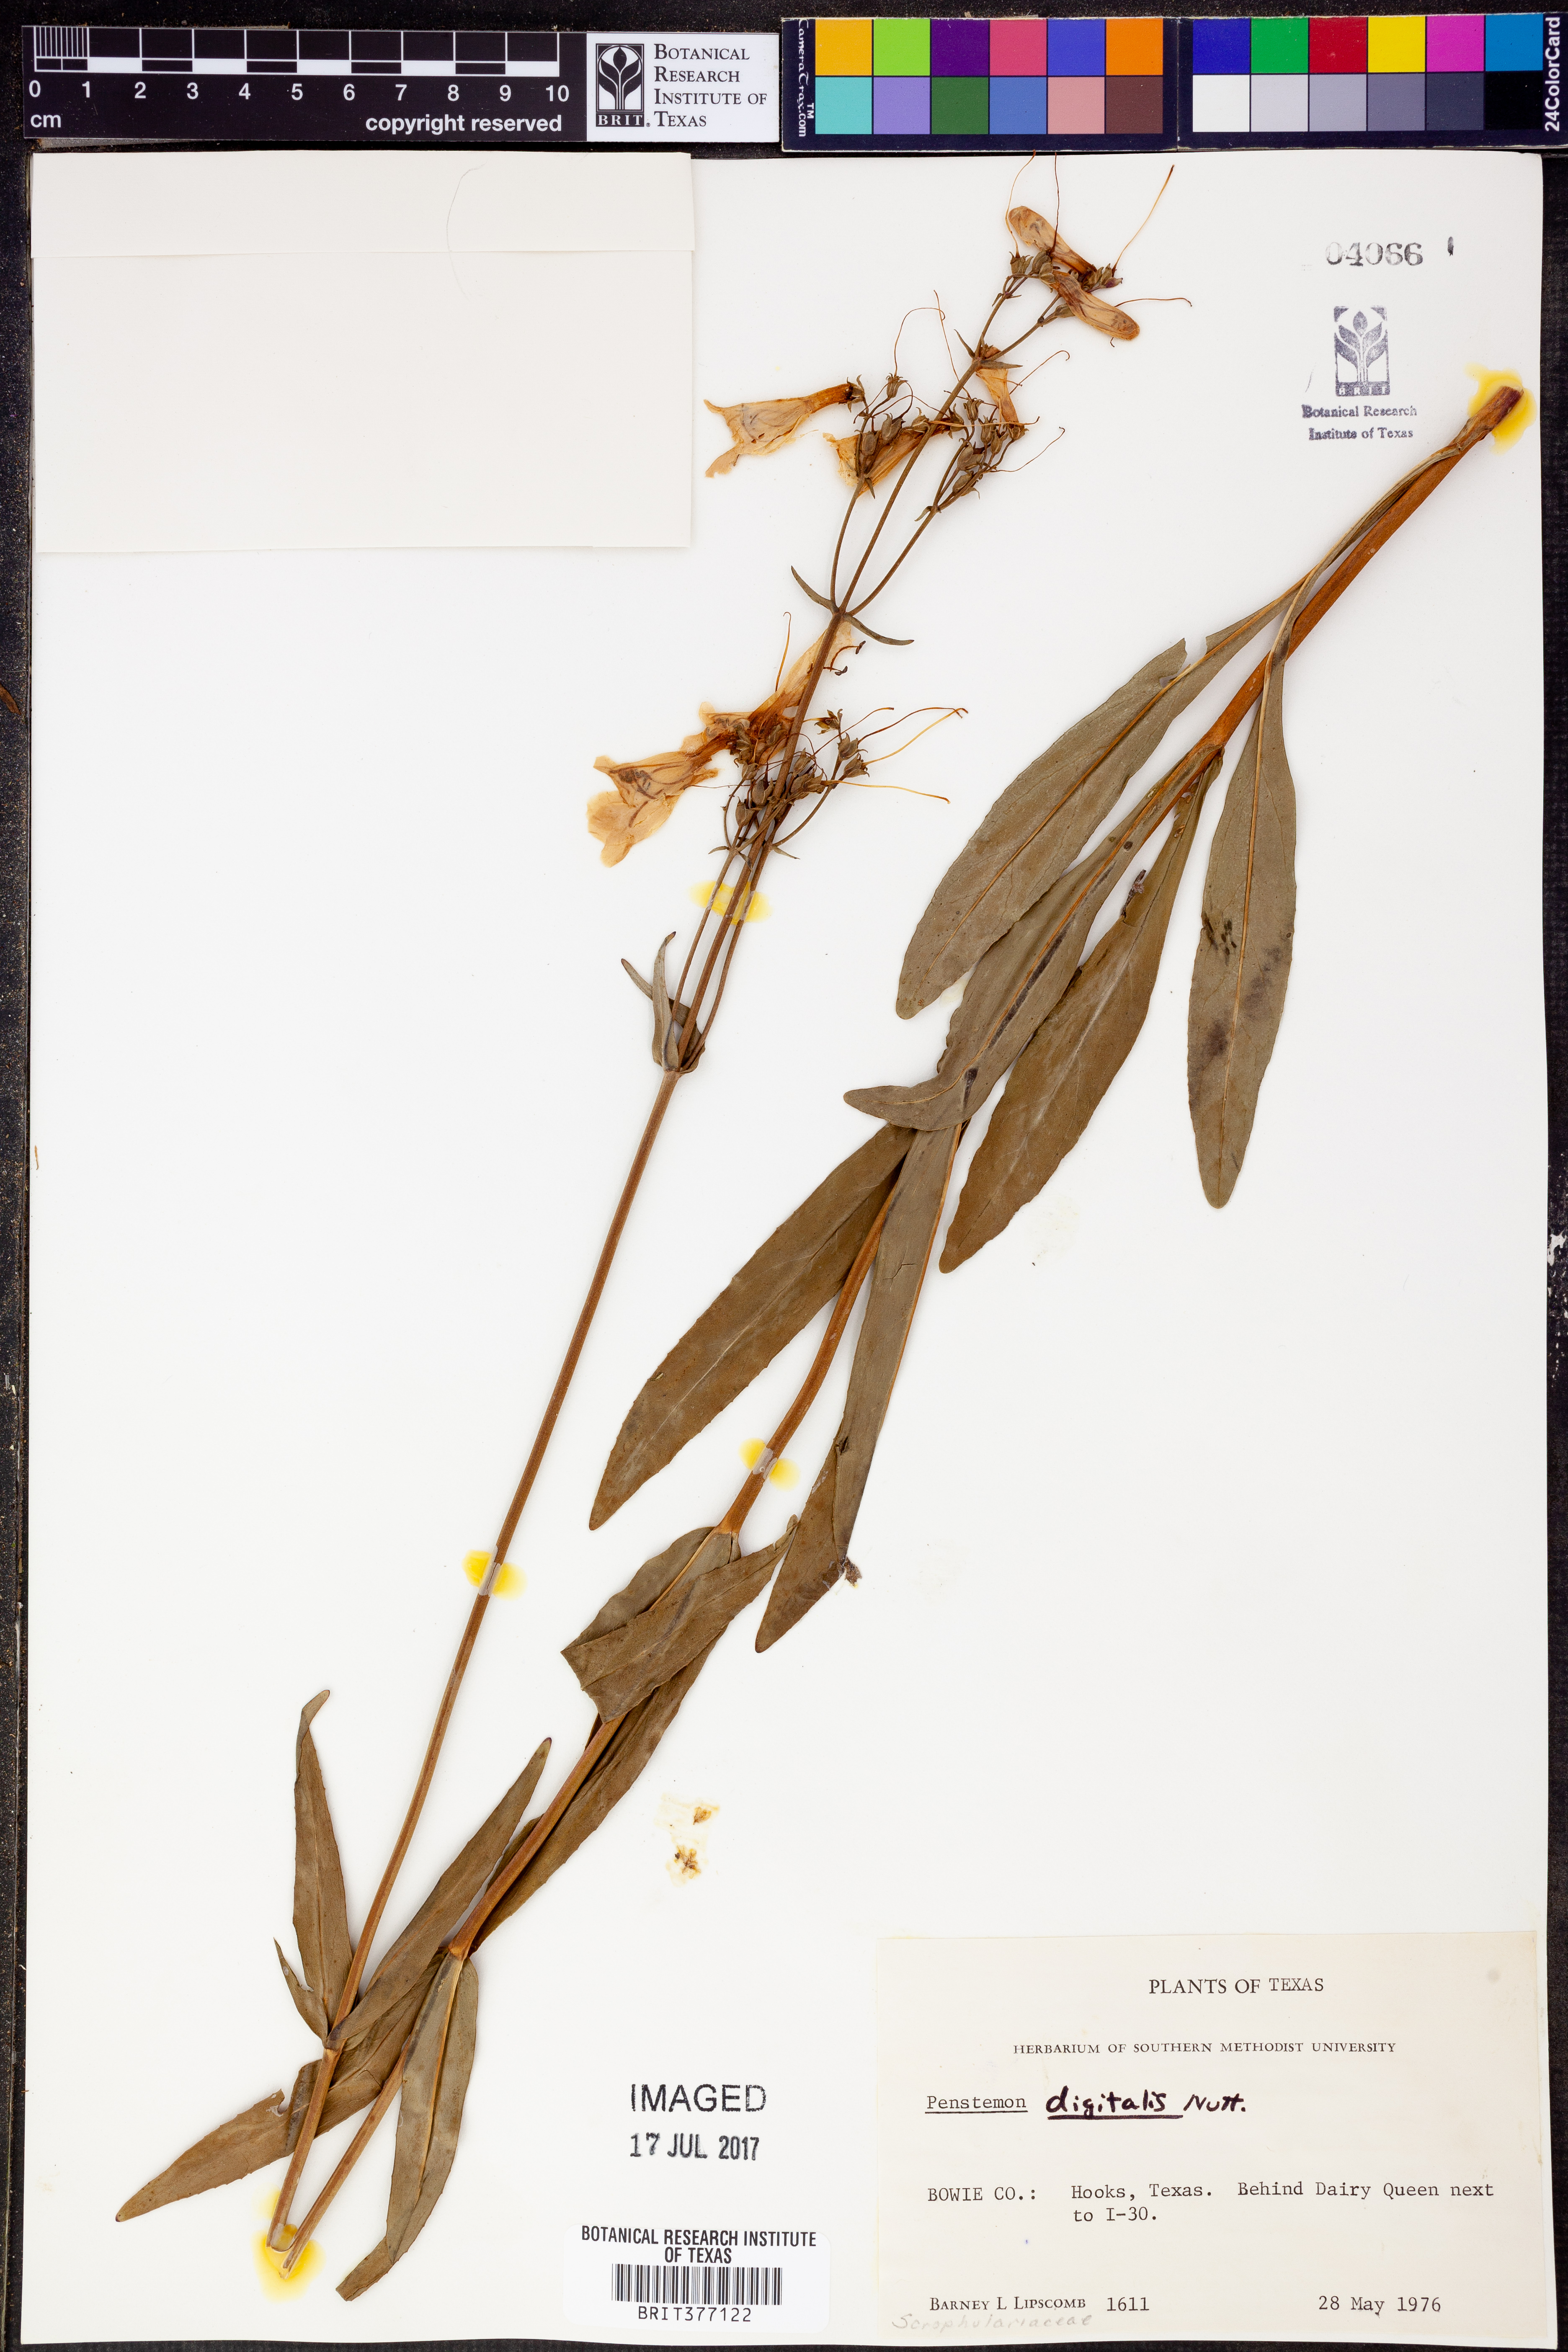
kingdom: Plantae
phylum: Tracheophyta
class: Magnoliopsida
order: Lamiales
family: Plantaginaceae
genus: Penstemon
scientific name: Penstemon digitalis
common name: Foxglove beardtongue
